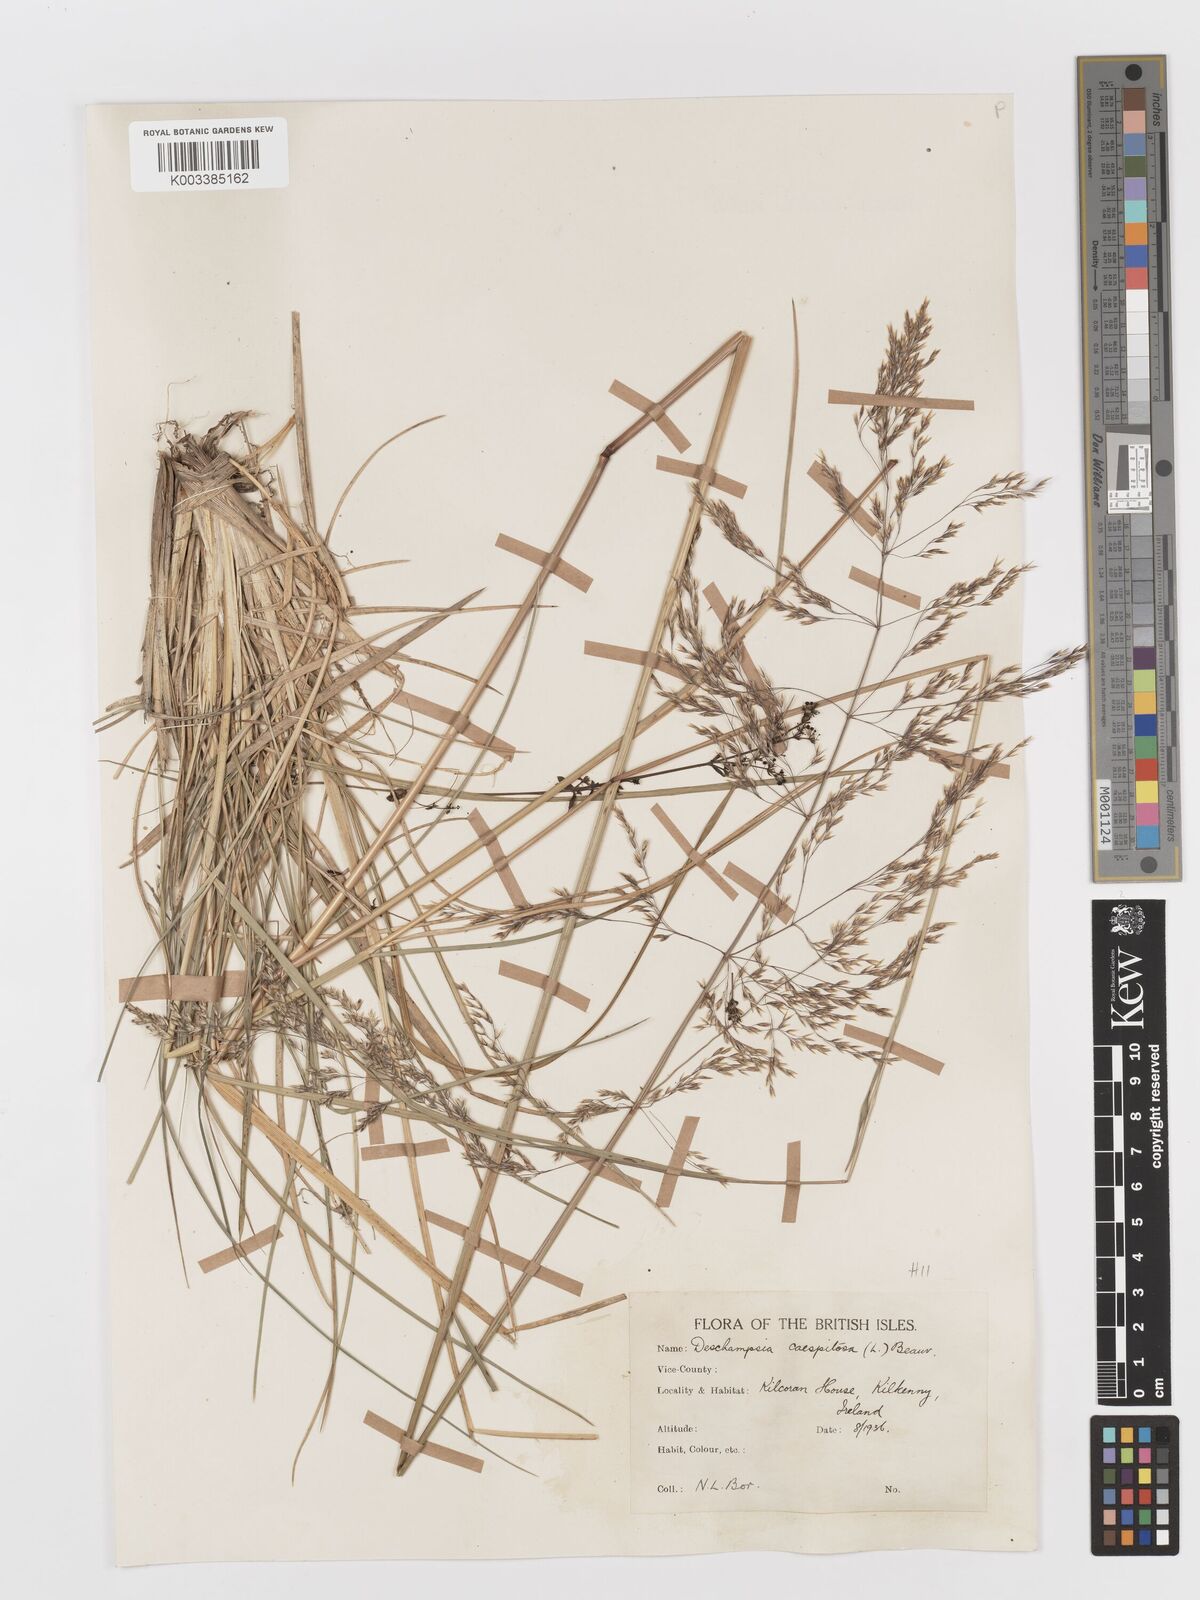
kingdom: Plantae
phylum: Tracheophyta
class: Liliopsida
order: Poales
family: Poaceae
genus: Deschampsia
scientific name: Deschampsia cespitosa
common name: Tufted hair-grass
